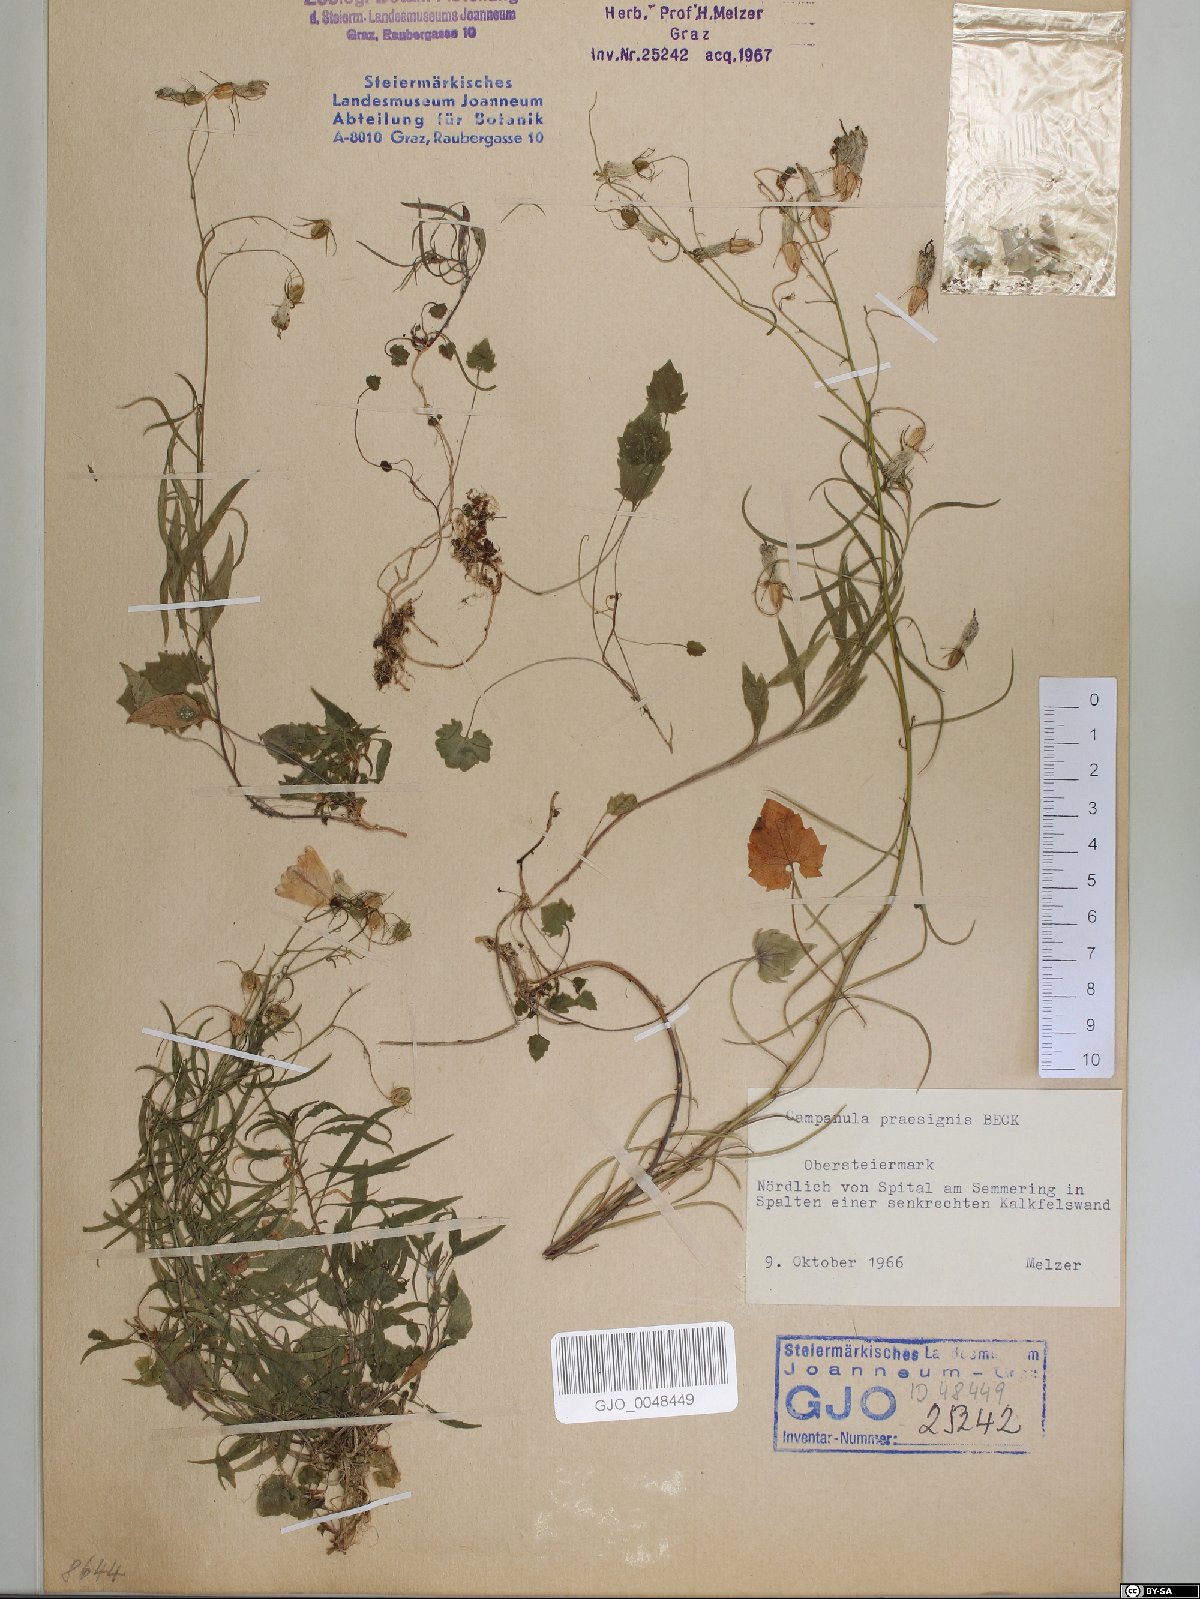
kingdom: Plantae
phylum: Tracheophyta
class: Magnoliopsida
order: Asterales
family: Campanulaceae
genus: Campanula
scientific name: Campanula praesignis
